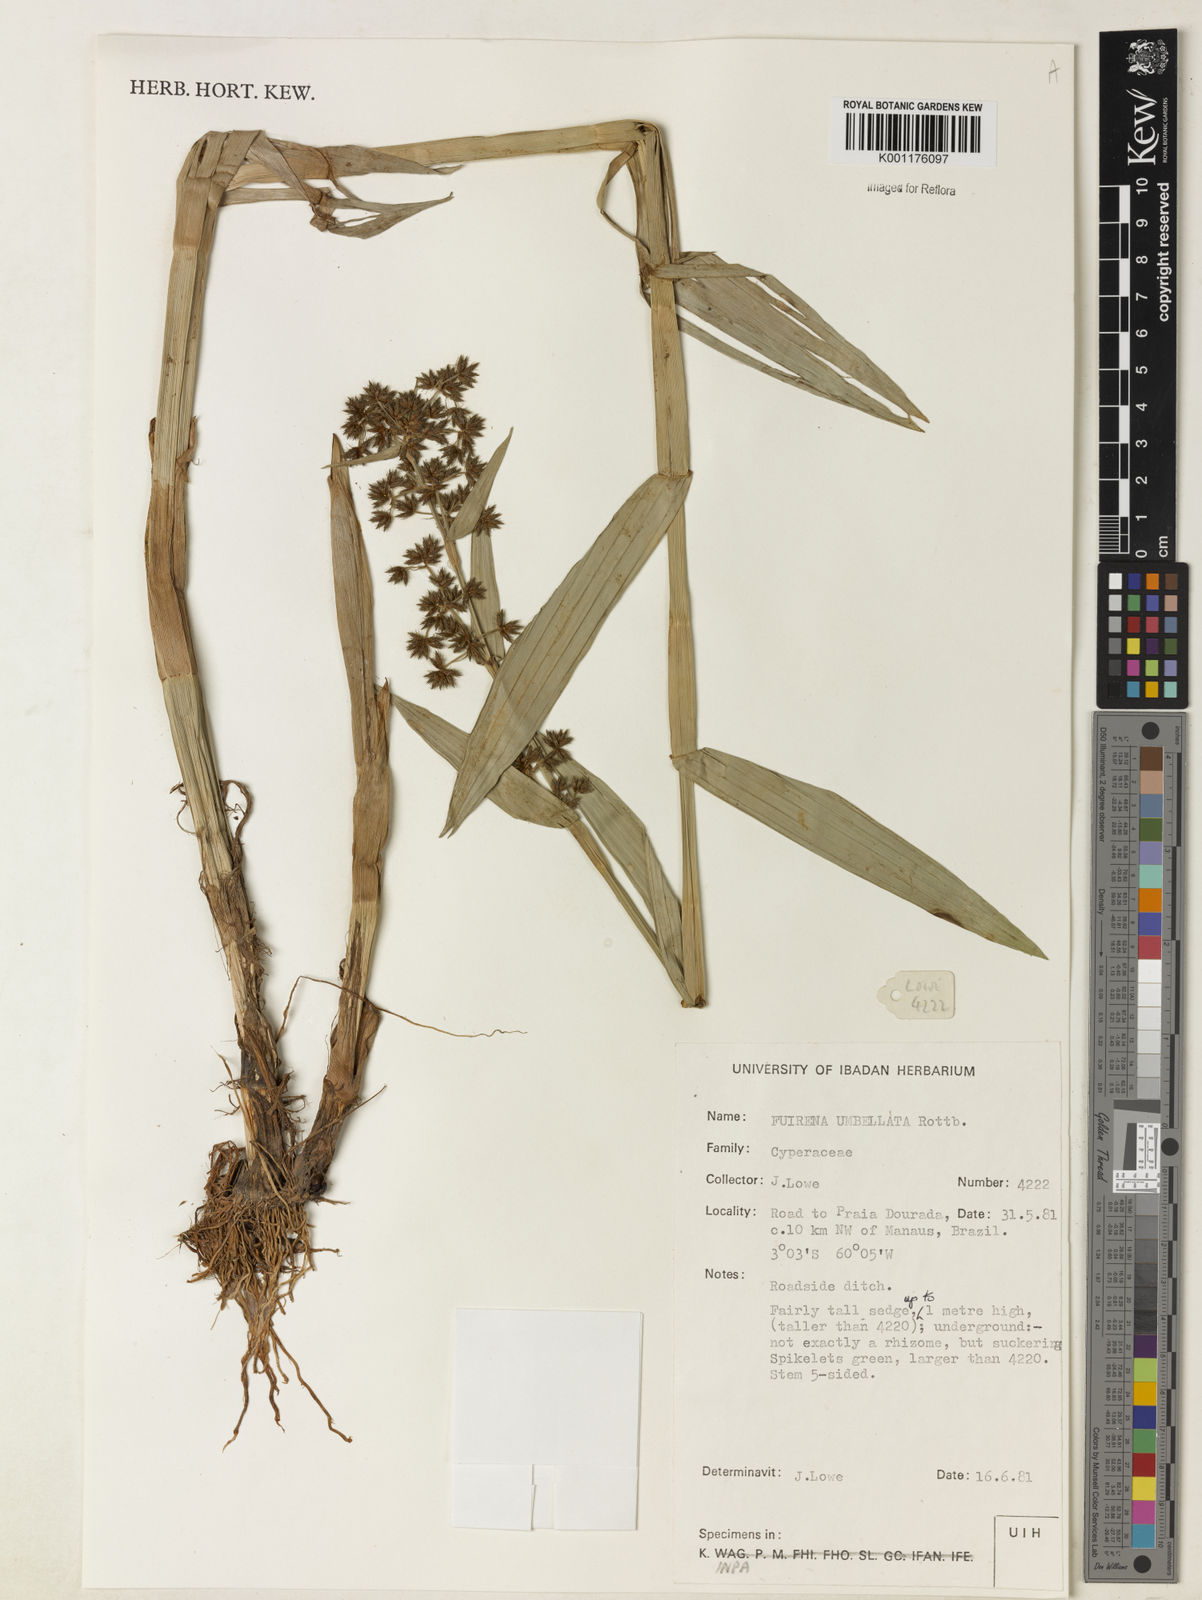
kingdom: Plantae
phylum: Tracheophyta
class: Liliopsida
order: Poales
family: Cyperaceae
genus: Fuirena
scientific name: Fuirena umbellata
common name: Yefen
